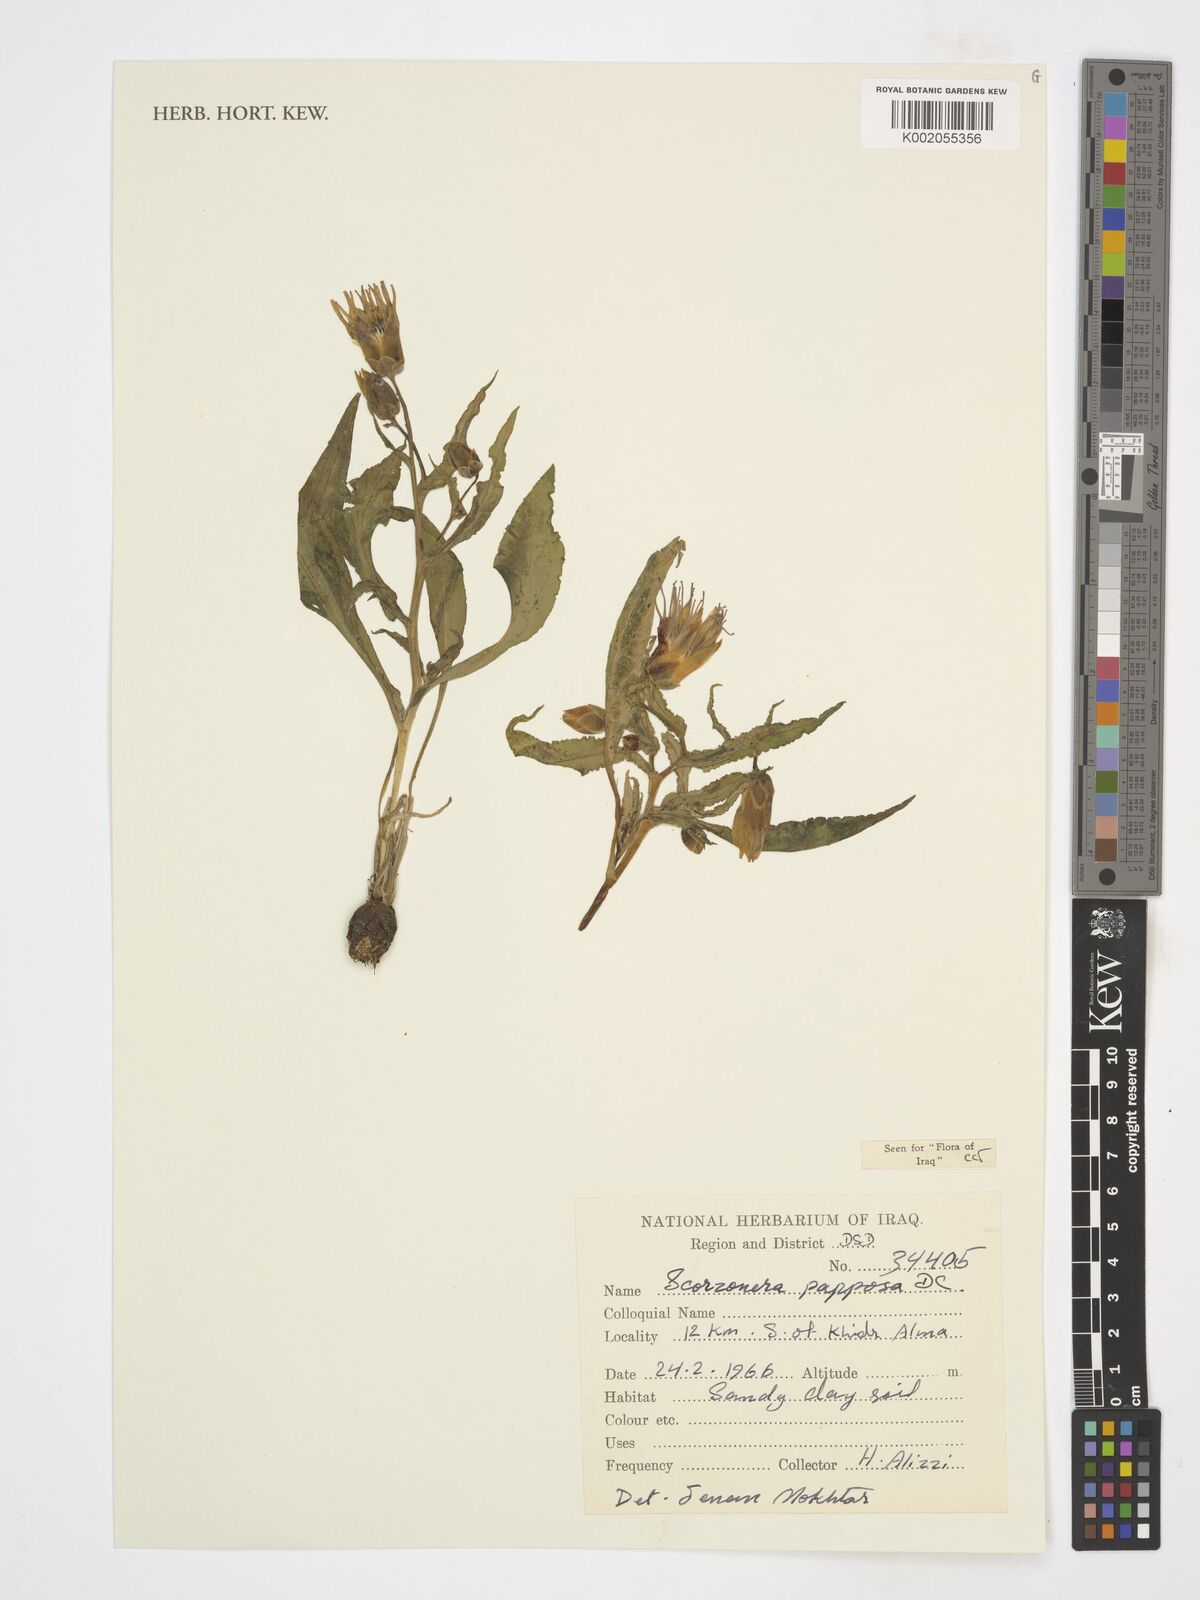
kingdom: Plantae
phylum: Tracheophyta
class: Magnoliopsida
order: Asterales
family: Asteraceae
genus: Pseudopodospermum
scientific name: Pseudopodospermum papposum
